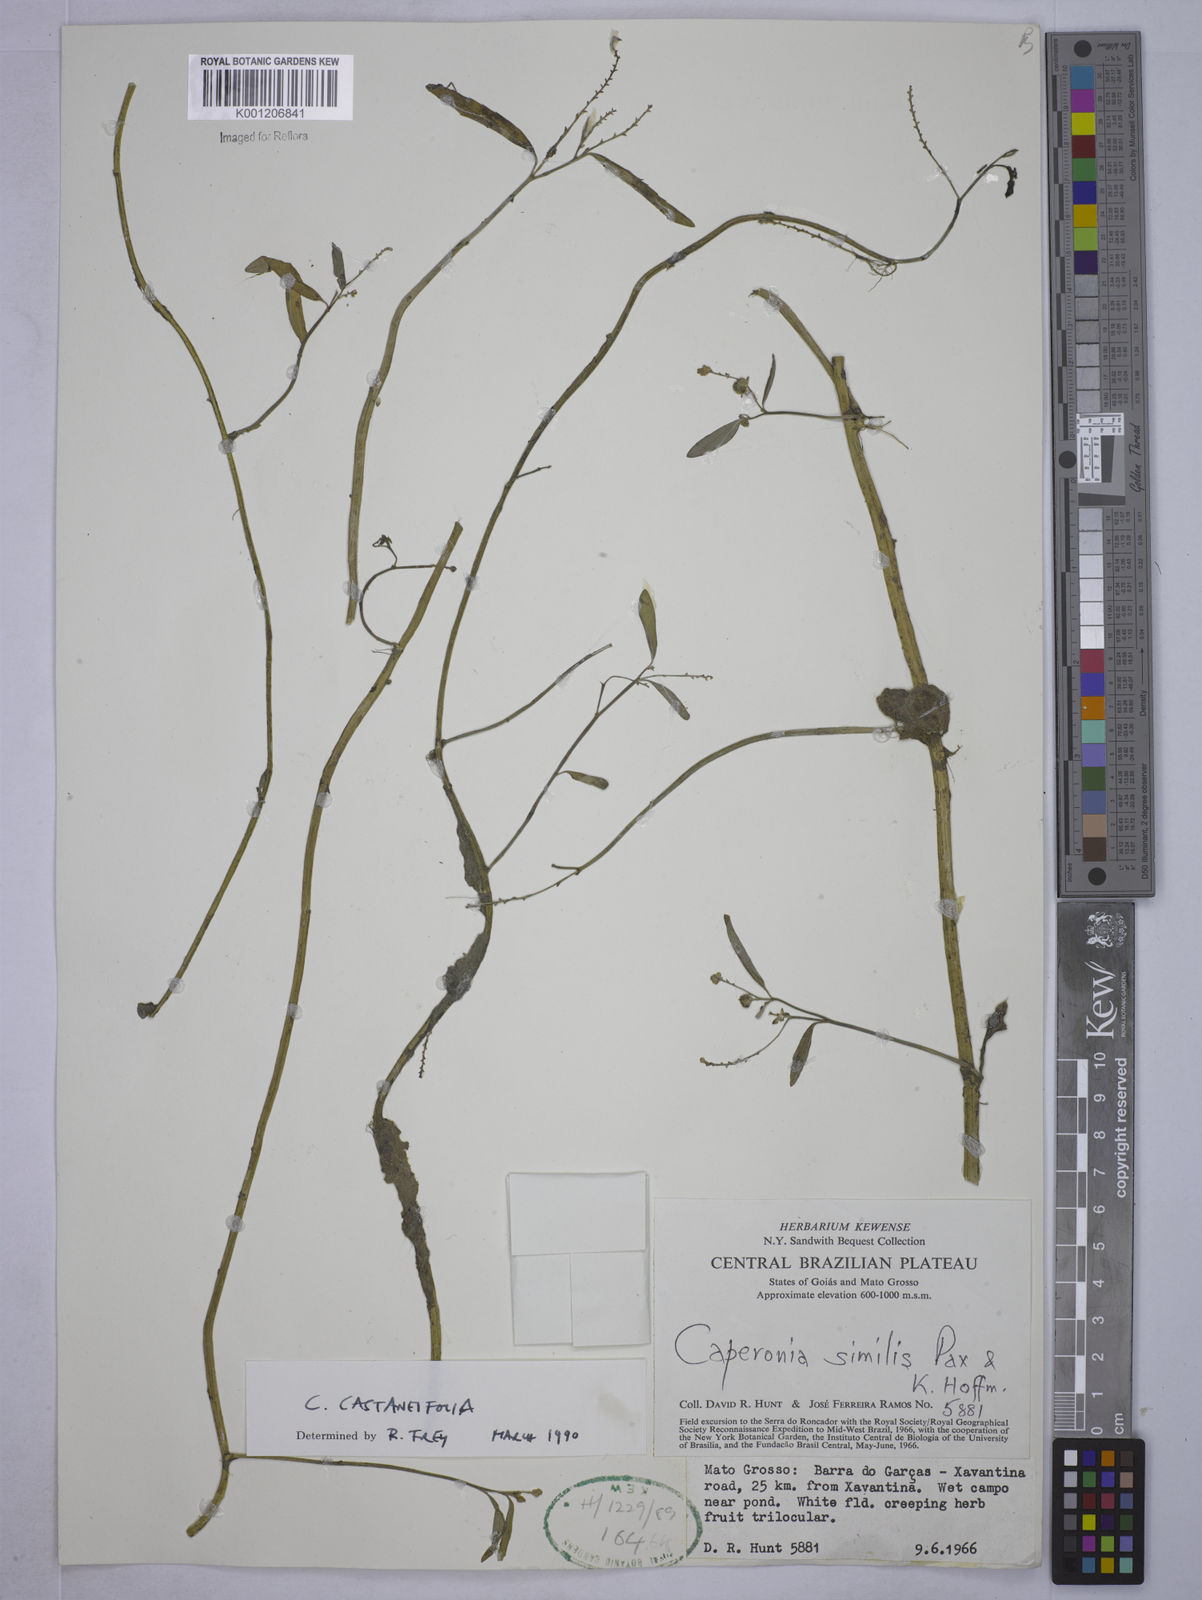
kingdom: Plantae
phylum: Tracheophyta
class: Magnoliopsida
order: Malpighiales
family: Euphorbiaceae
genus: Caperonia
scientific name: Caperonia castaneifolia
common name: Chestnutleaf false croton
